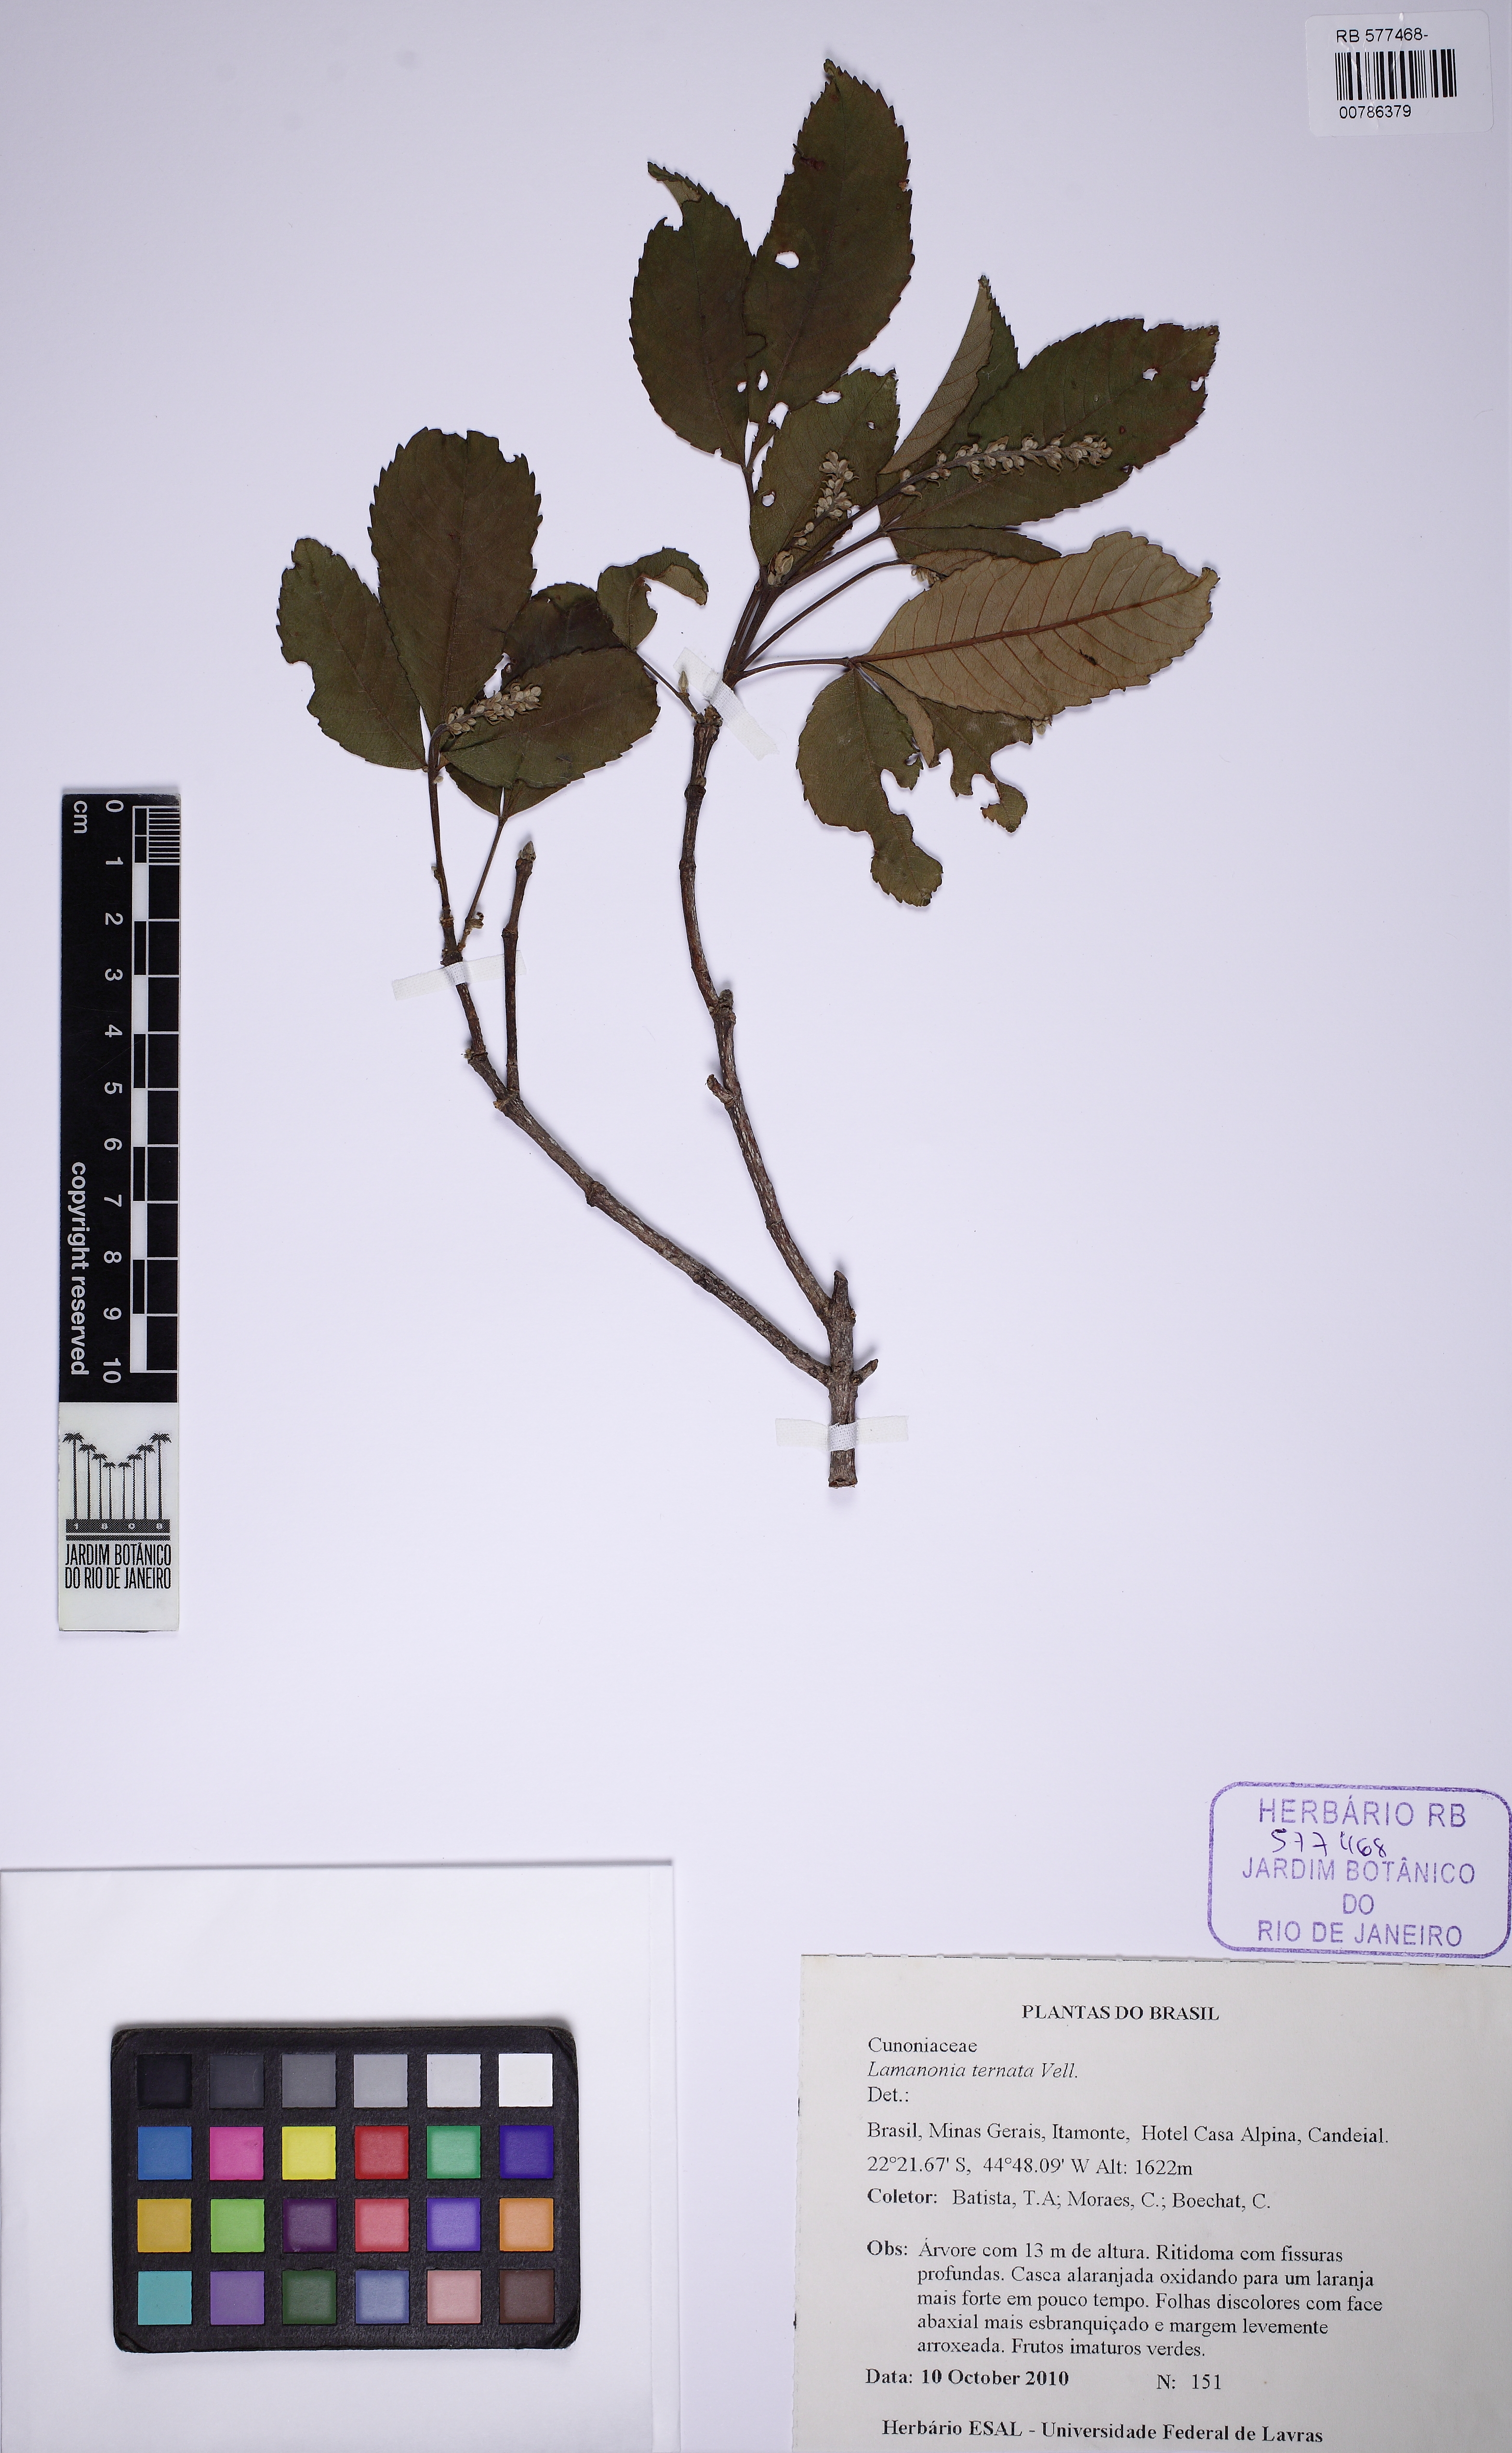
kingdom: Plantae
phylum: Tracheophyta
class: Magnoliopsida
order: Oxalidales
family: Cunoniaceae
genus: Lamanonia
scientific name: Lamanonia ternata
